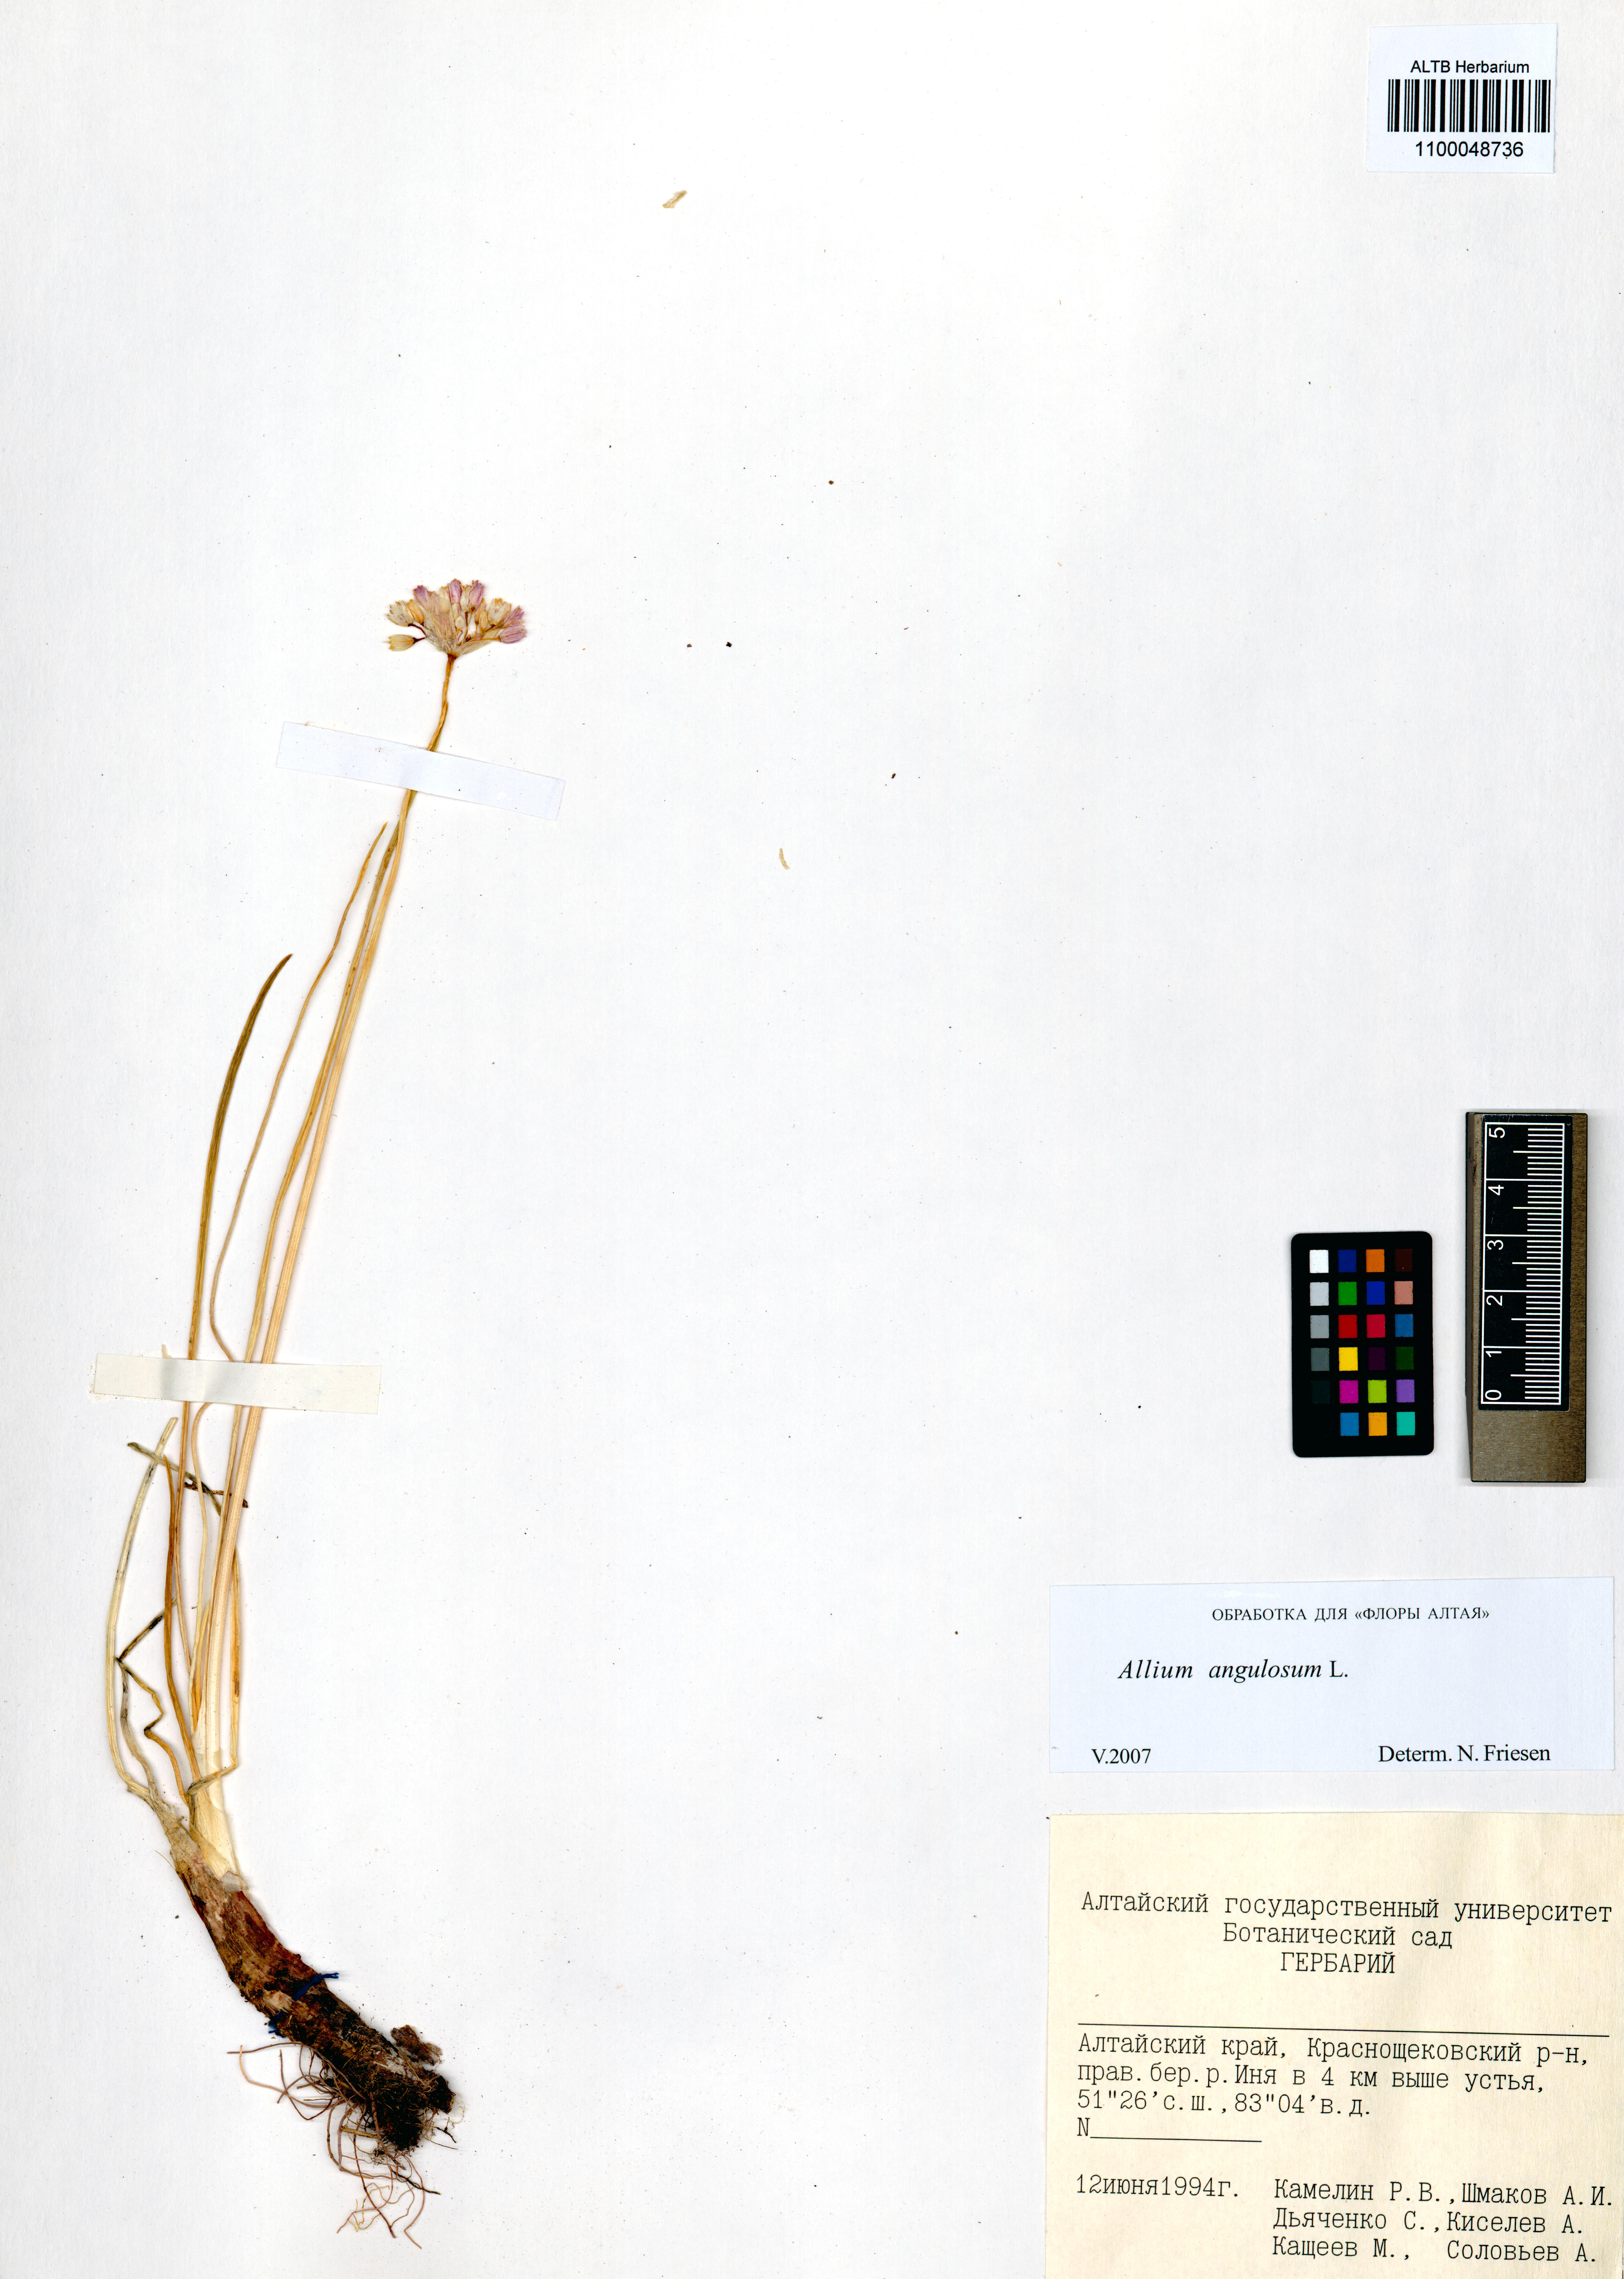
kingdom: Plantae
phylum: Tracheophyta
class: Liliopsida
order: Asparagales
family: Amaryllidaceae
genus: Allium
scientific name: Allium angulosum
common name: Mouse garlic
